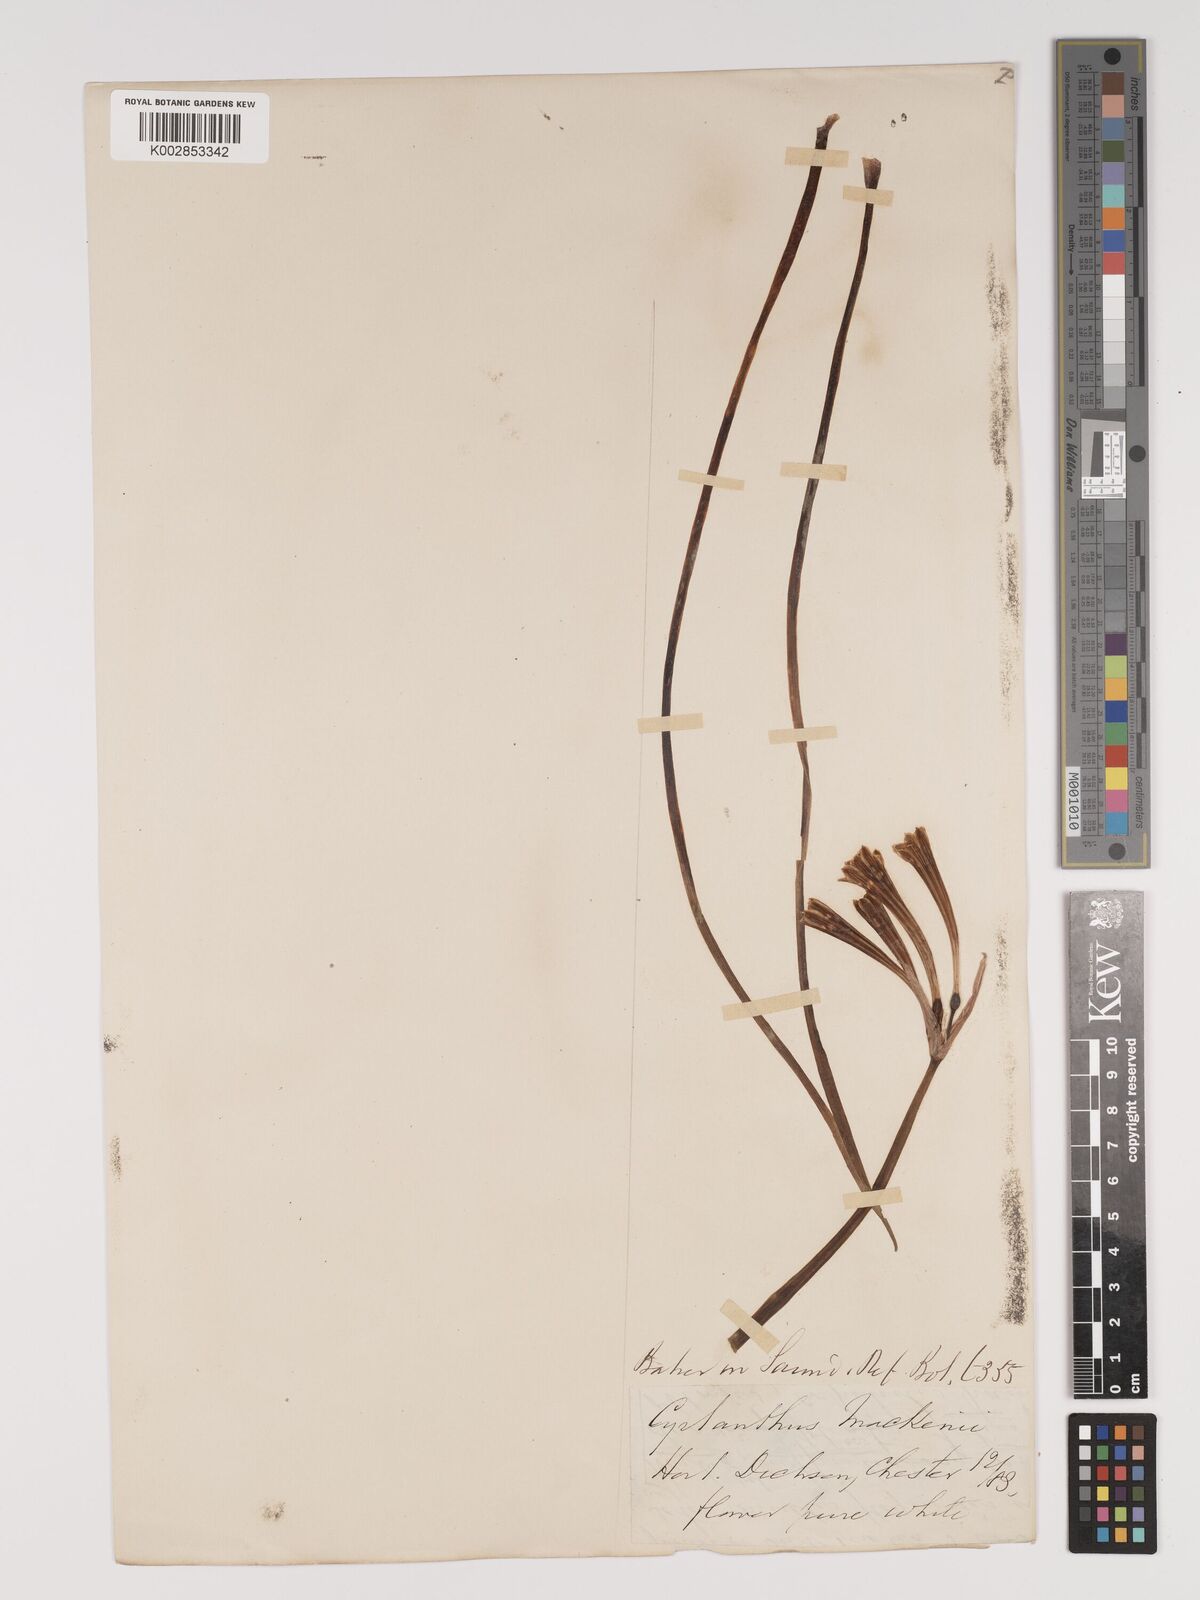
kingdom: Plantae
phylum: Tracheophyta
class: Liliopsida
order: Asparagales
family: Amaryllidaceae
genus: Cyrtanthus
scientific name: Cyrtanthus mackenii
